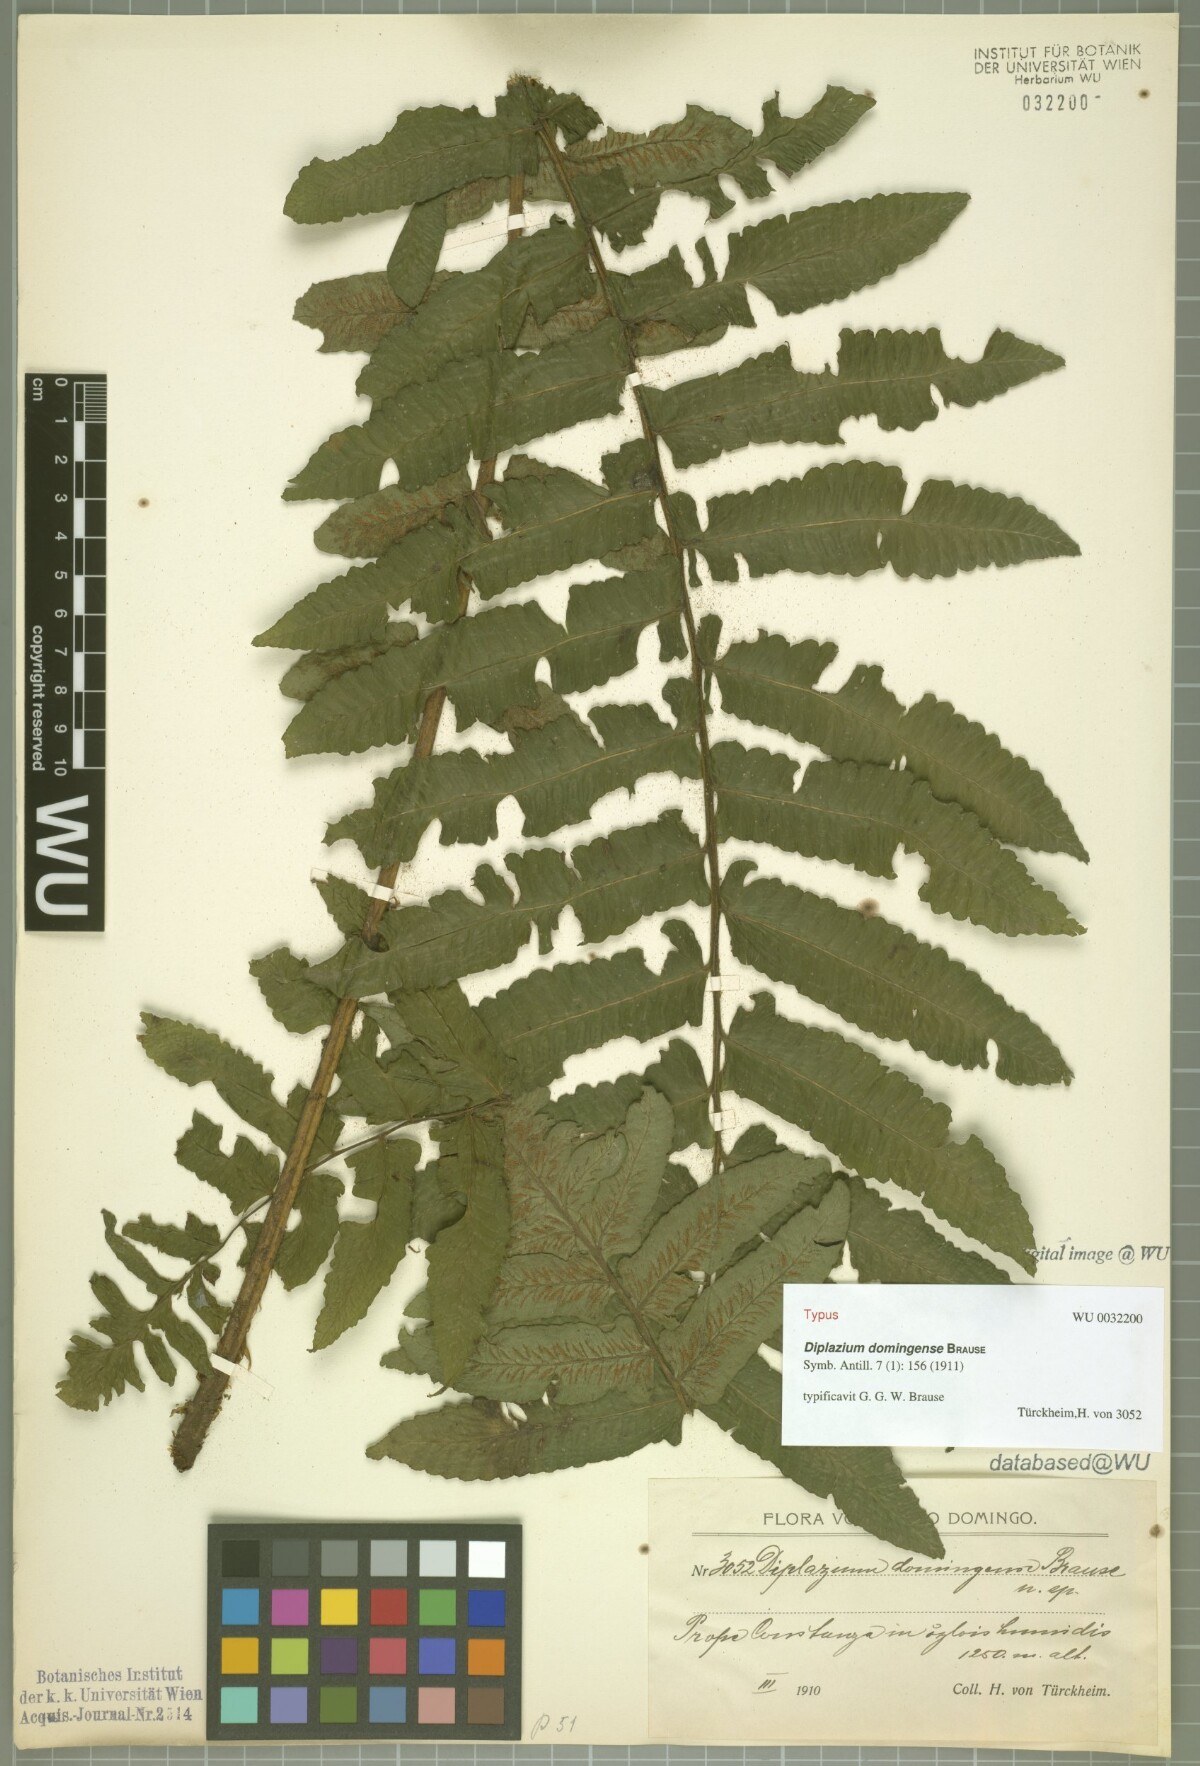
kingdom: Plantae
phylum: Tracheophyta
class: Polypodiopsida
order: Polypodiales
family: Athyriaceae
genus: Diplazium
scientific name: Diplazium centripetale
